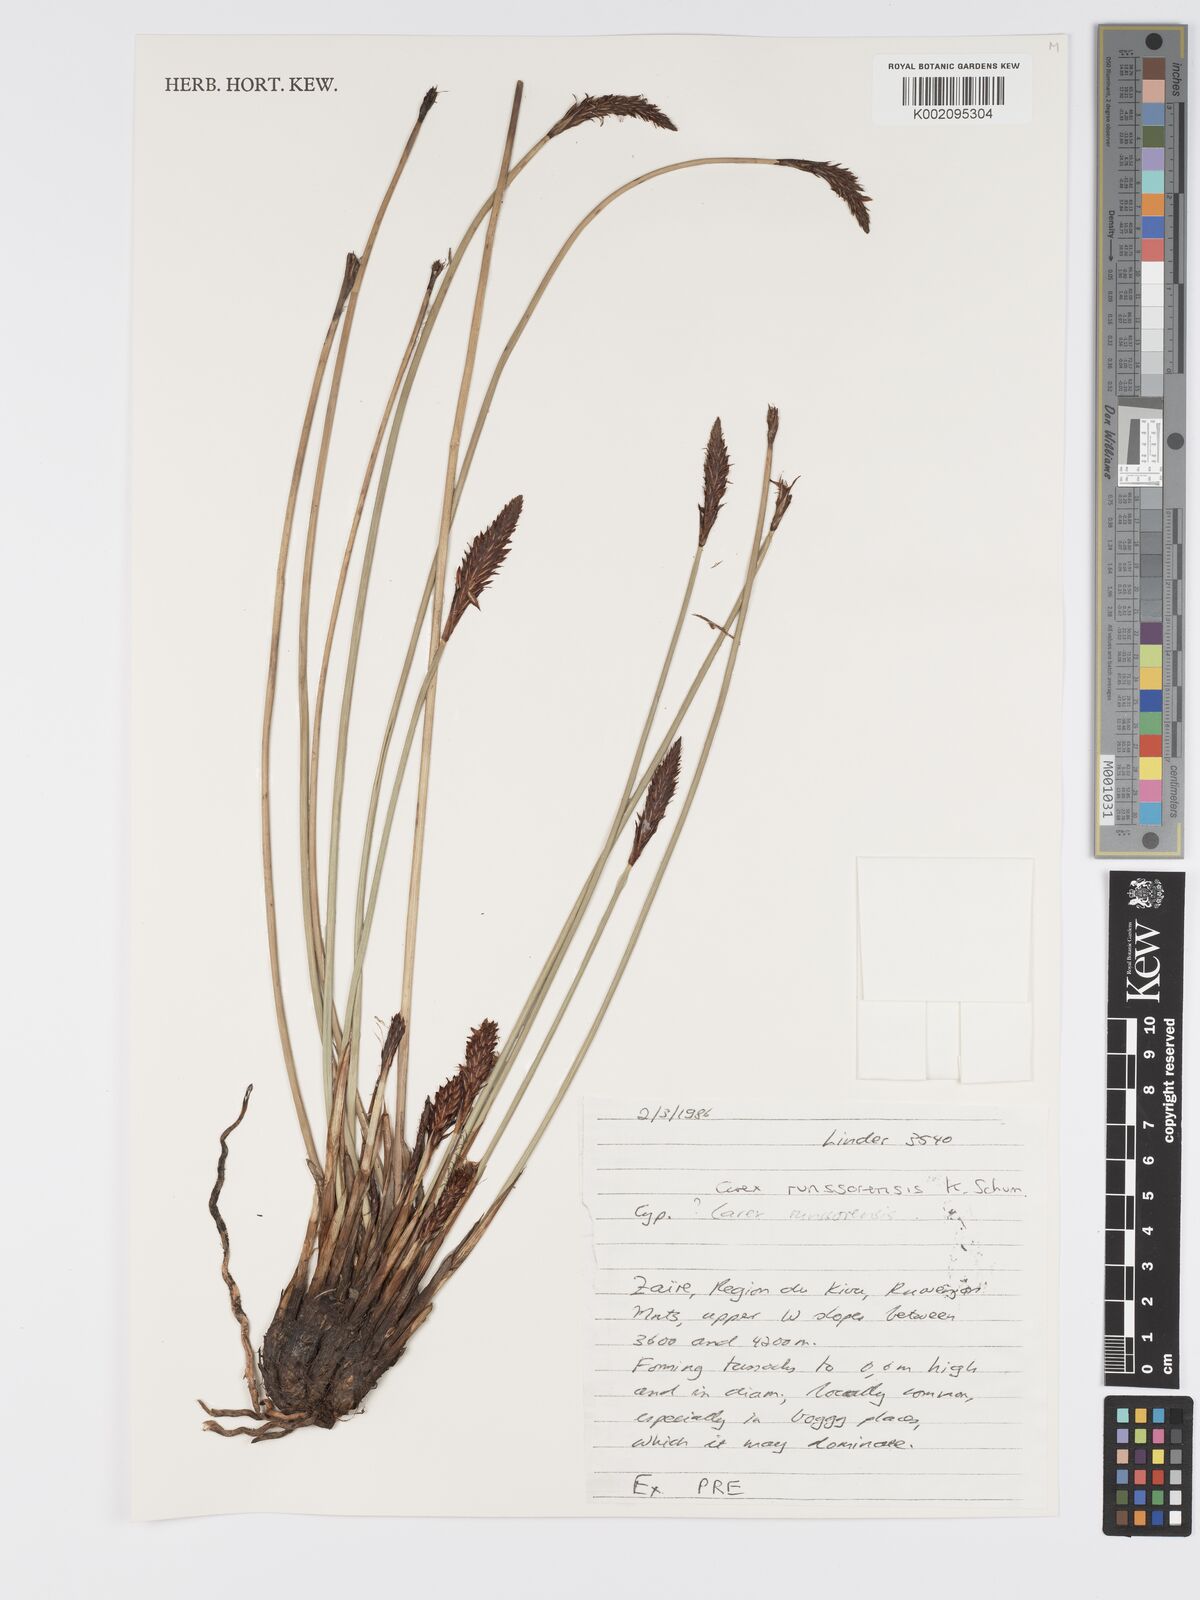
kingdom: Plantae
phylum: Tracheophyta
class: Liliopsida
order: Poales
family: Cyperaceae
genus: Carex
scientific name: Carex runssoroensis
